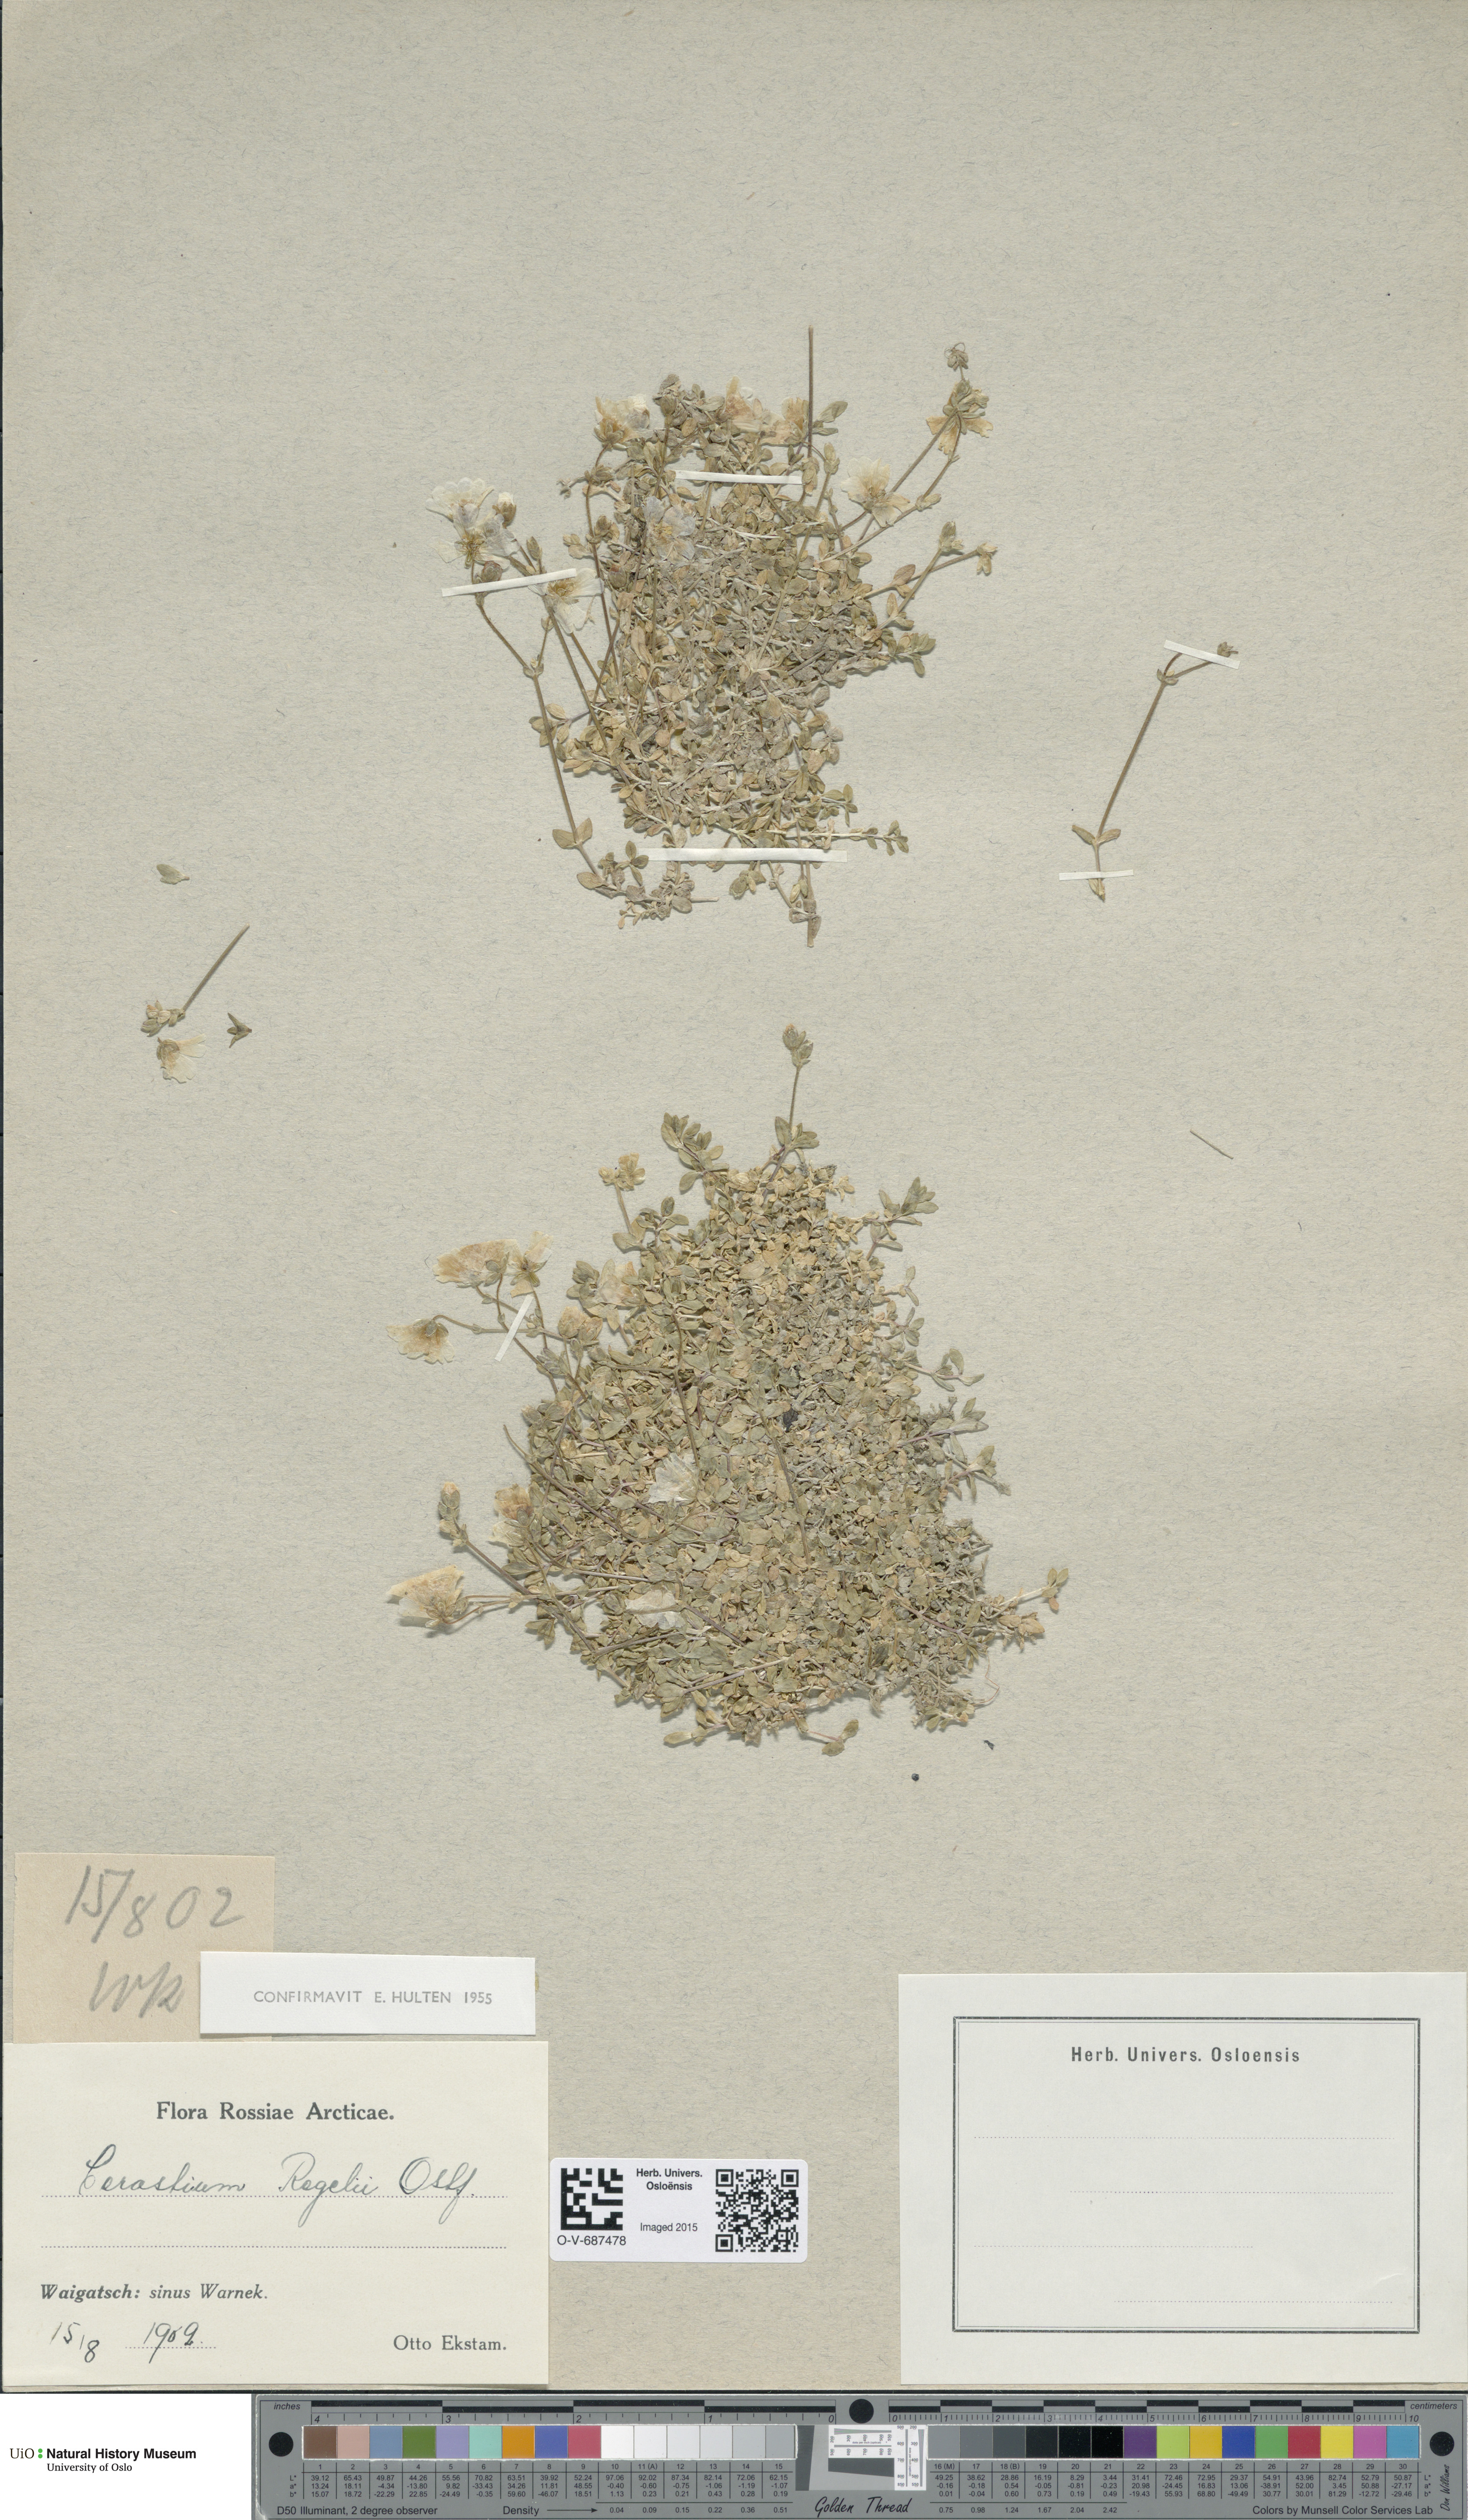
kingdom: Plantae
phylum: Tracheophyta
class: Magnoliopsida
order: Caryophyllales
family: Caryophyllaceae
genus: Cerastium
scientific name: Cerastium regelii
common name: Regel's chickweed
